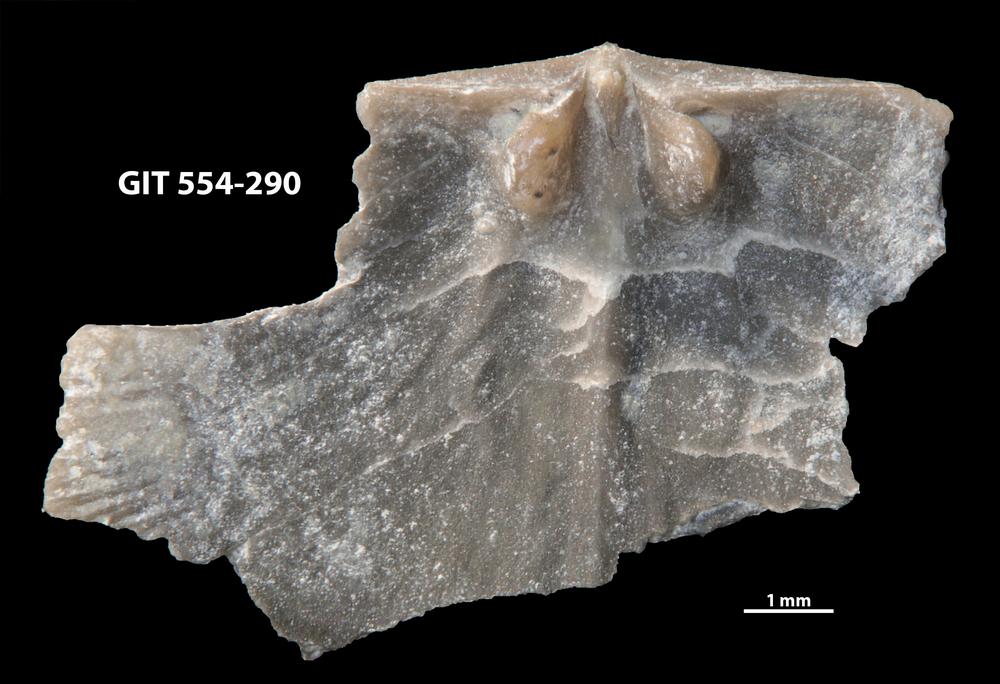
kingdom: Animalia
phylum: Brachiopoda
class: Rhynchonellata
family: Dalmanellidae
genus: Onniella
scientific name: Onniella trigona
